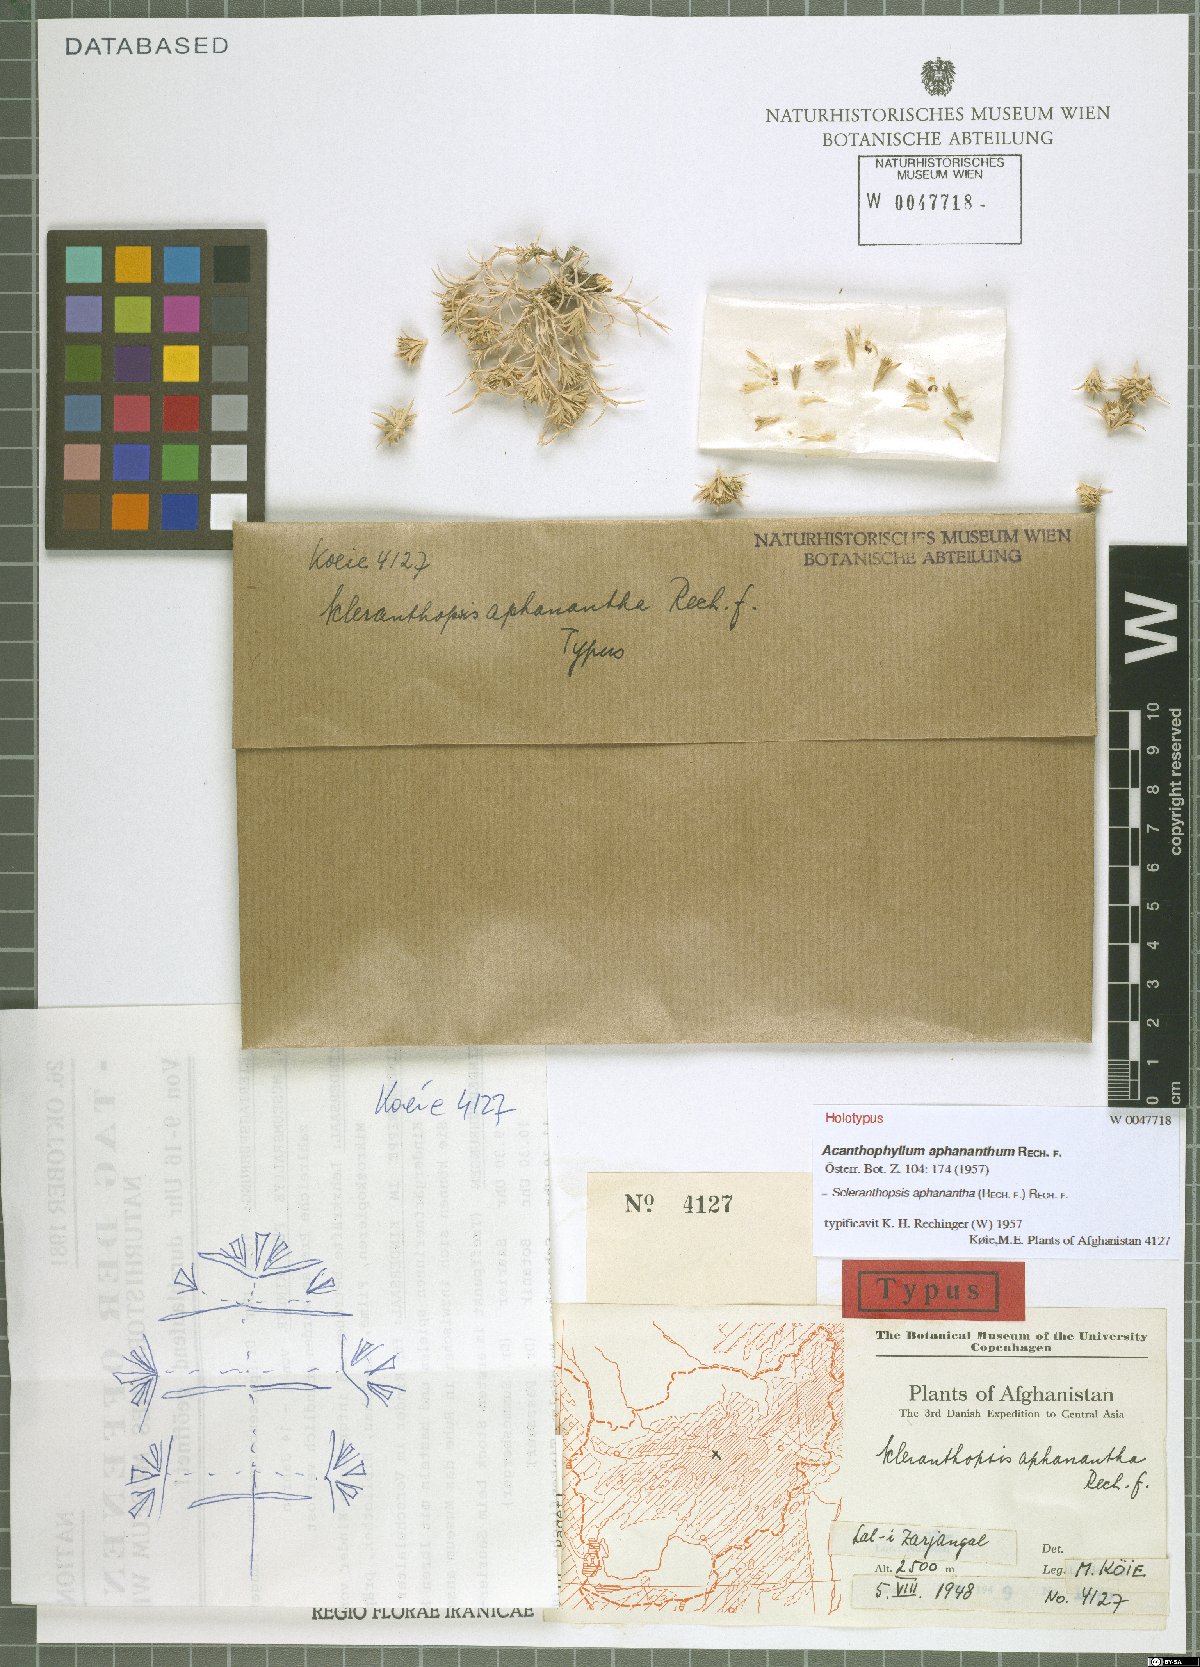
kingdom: Plantae
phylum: Tracheophyta
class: Magnoliopsida
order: Caryophyllales
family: Caryophyllaceae
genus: Acanthophyllum
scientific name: Acanthophyllum aphananthum
